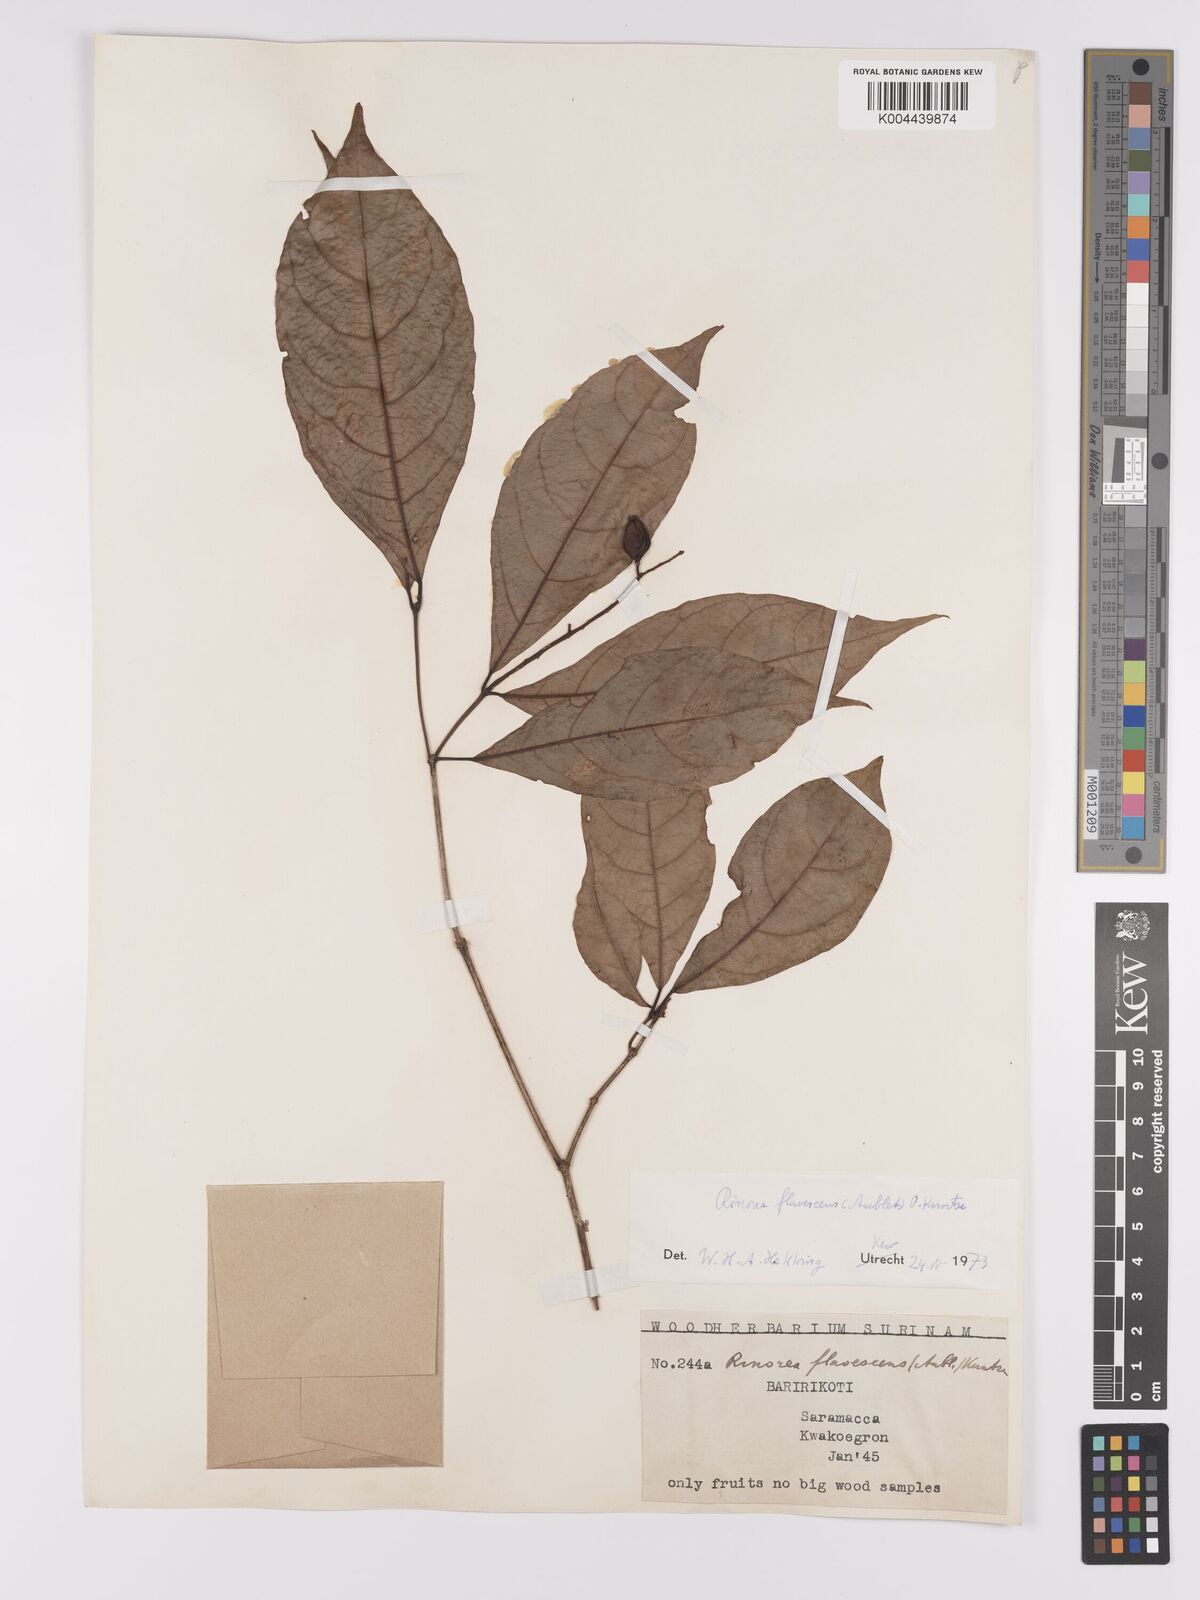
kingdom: Plantae
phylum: Tracheophyta
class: Magnoliopsida
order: Malpighiales
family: Violaceae
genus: Rinorea
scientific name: Rinorea flavescens
